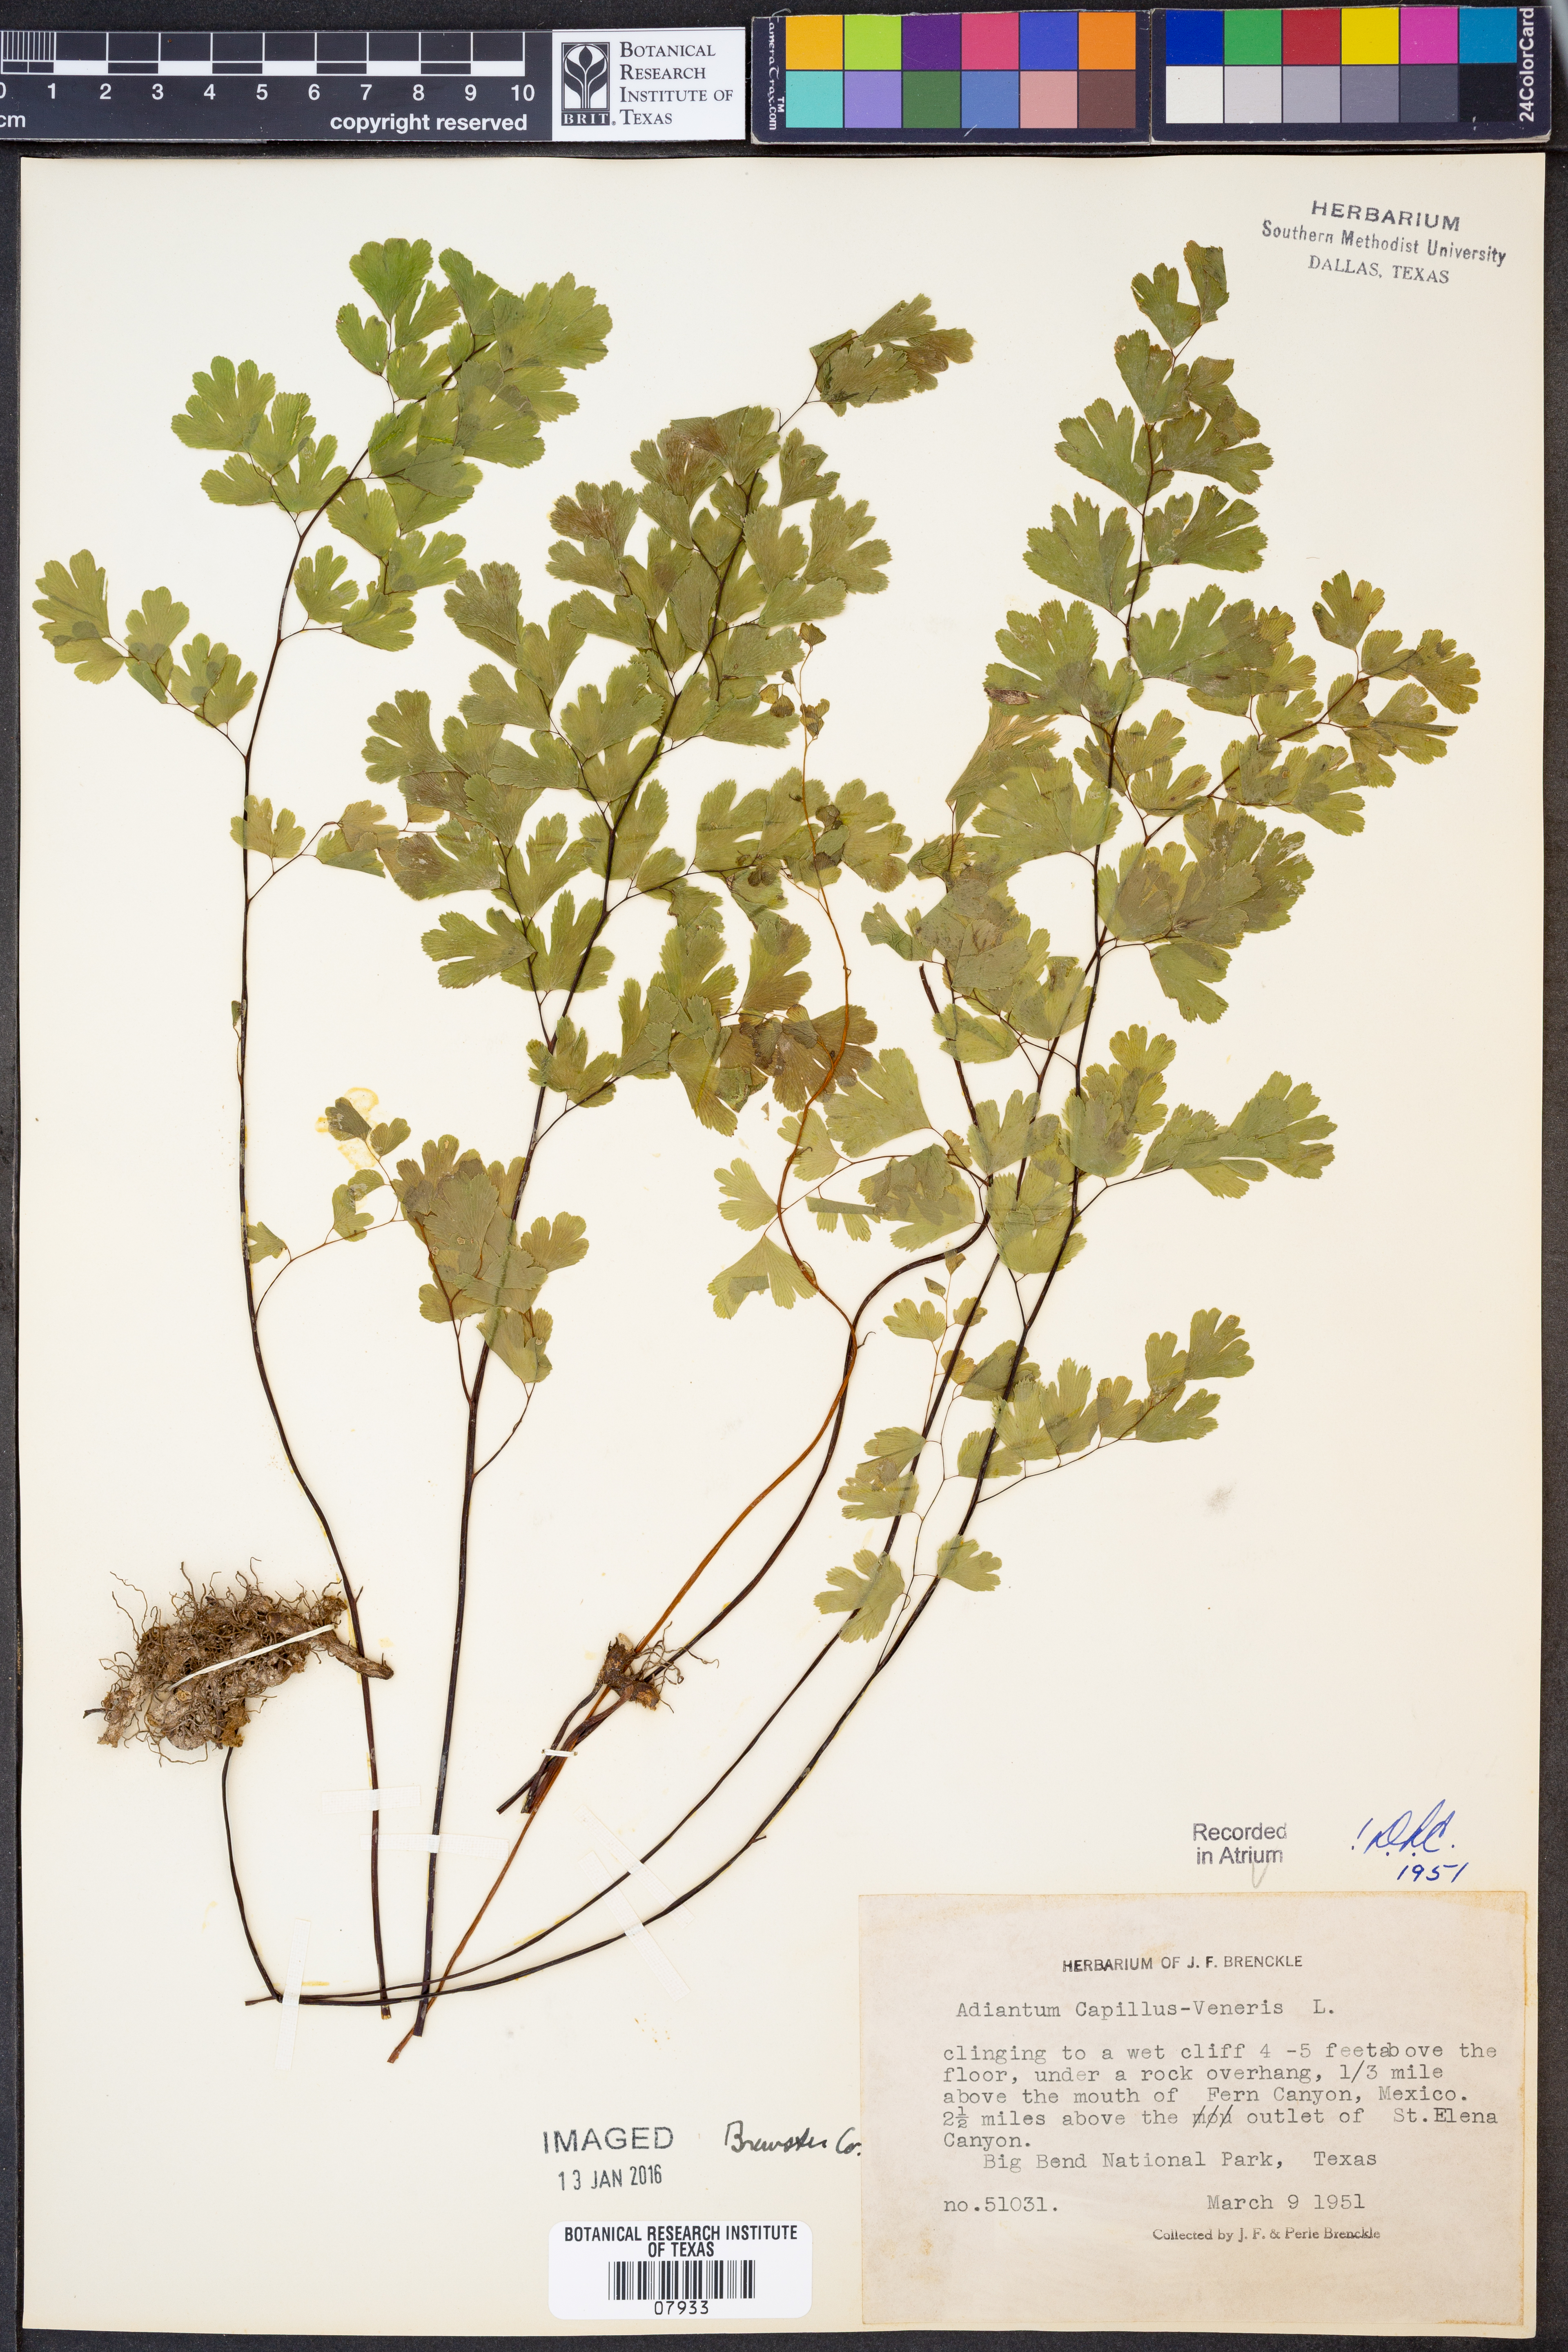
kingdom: Plantae
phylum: Tracheophyta
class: Polypodiopsida
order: Polypodiales
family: Pteridaceae
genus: Adiantum
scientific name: Adiantum capillus-veneris
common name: Maidenhair fern
